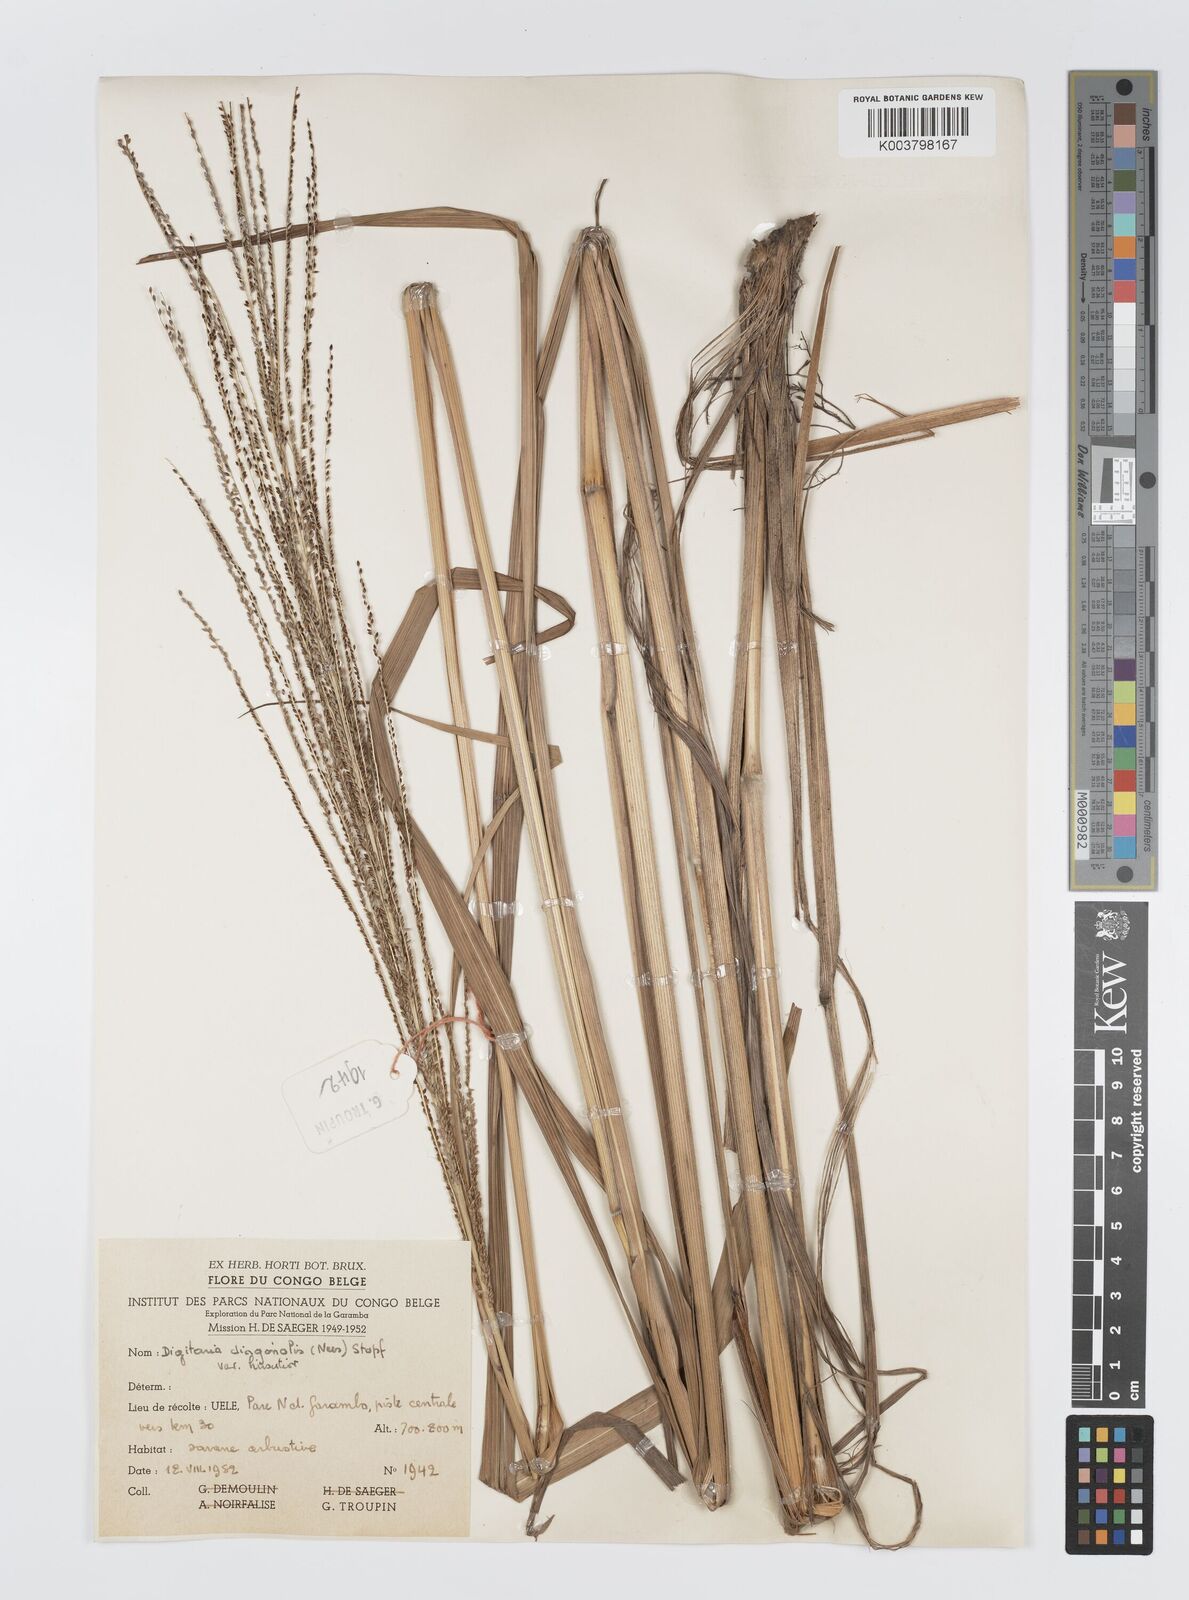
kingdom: Plantae
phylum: Tracheophyta
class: Liliopsida
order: Poales
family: Poaceae
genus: Digitaria
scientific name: Digitaria diagonalis
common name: Brown-seed finger grass
